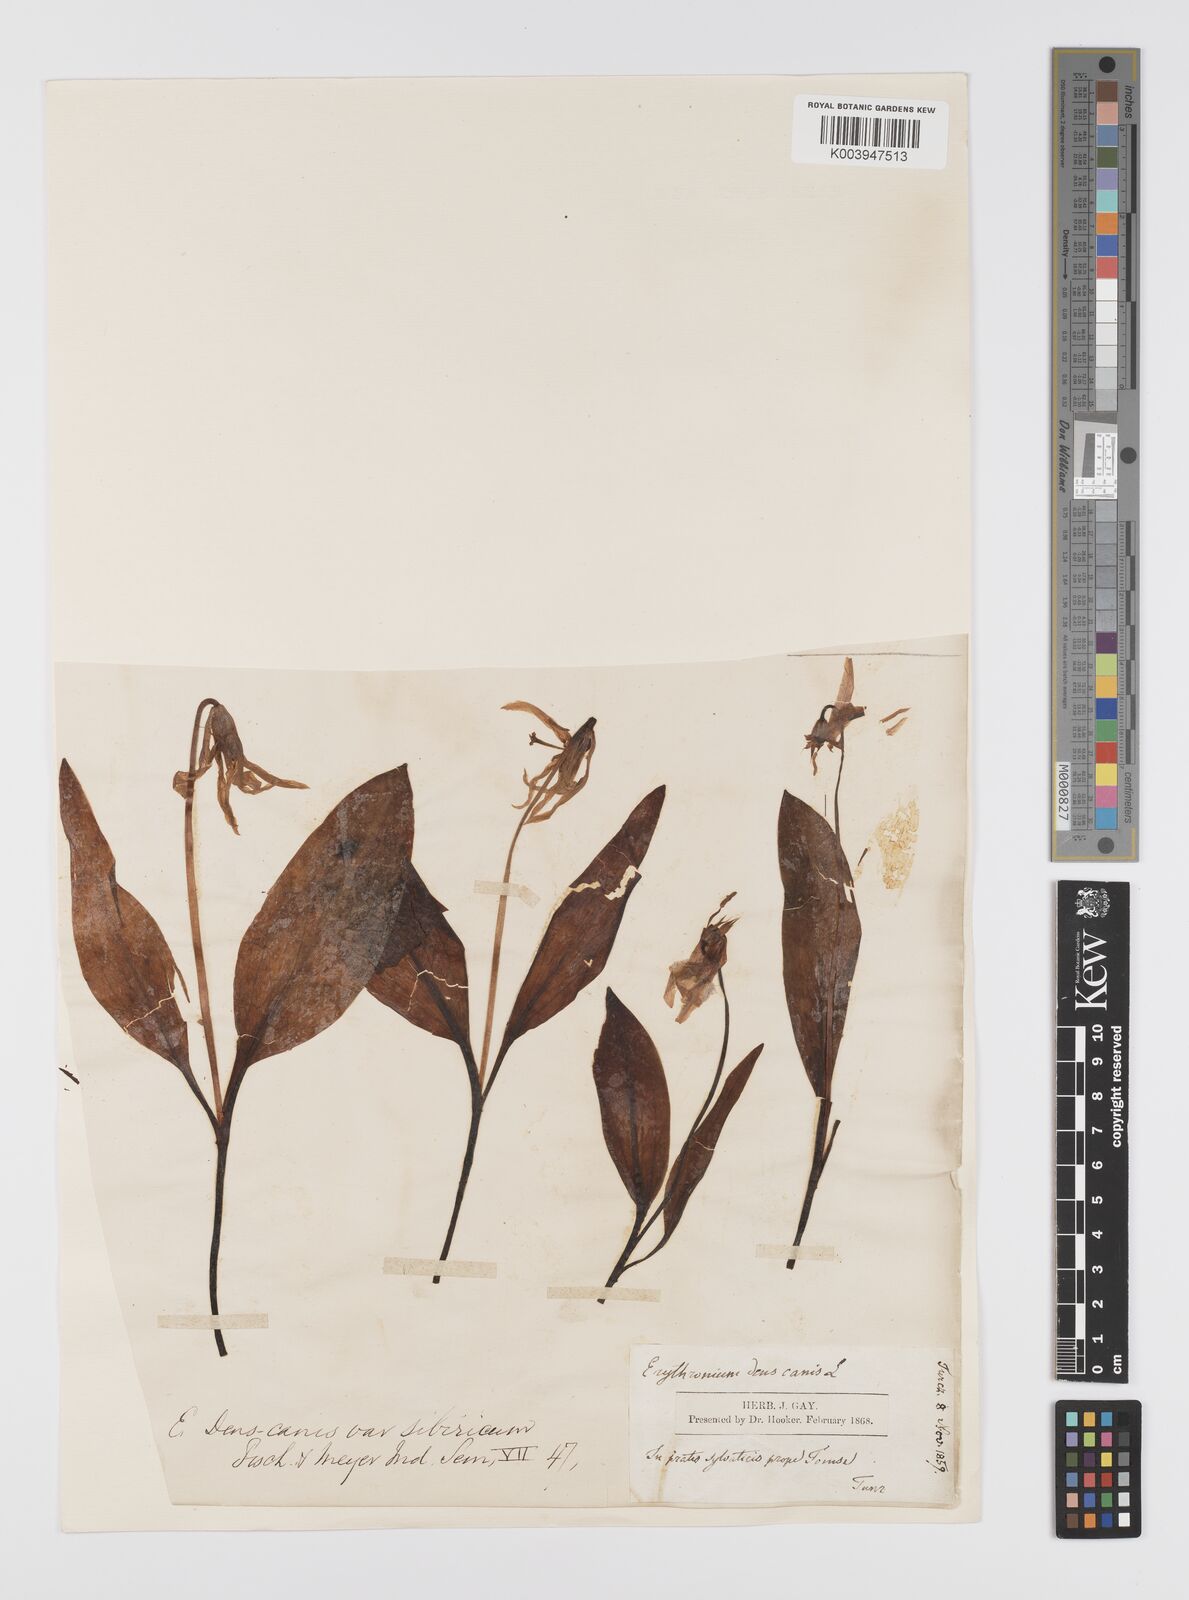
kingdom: Plantae
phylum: Tracheophyta
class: Liliopsida
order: Liliales
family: Liliaceae
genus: Erythronium
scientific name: Erythronium dens-canis
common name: Dog's-tooth-violet
